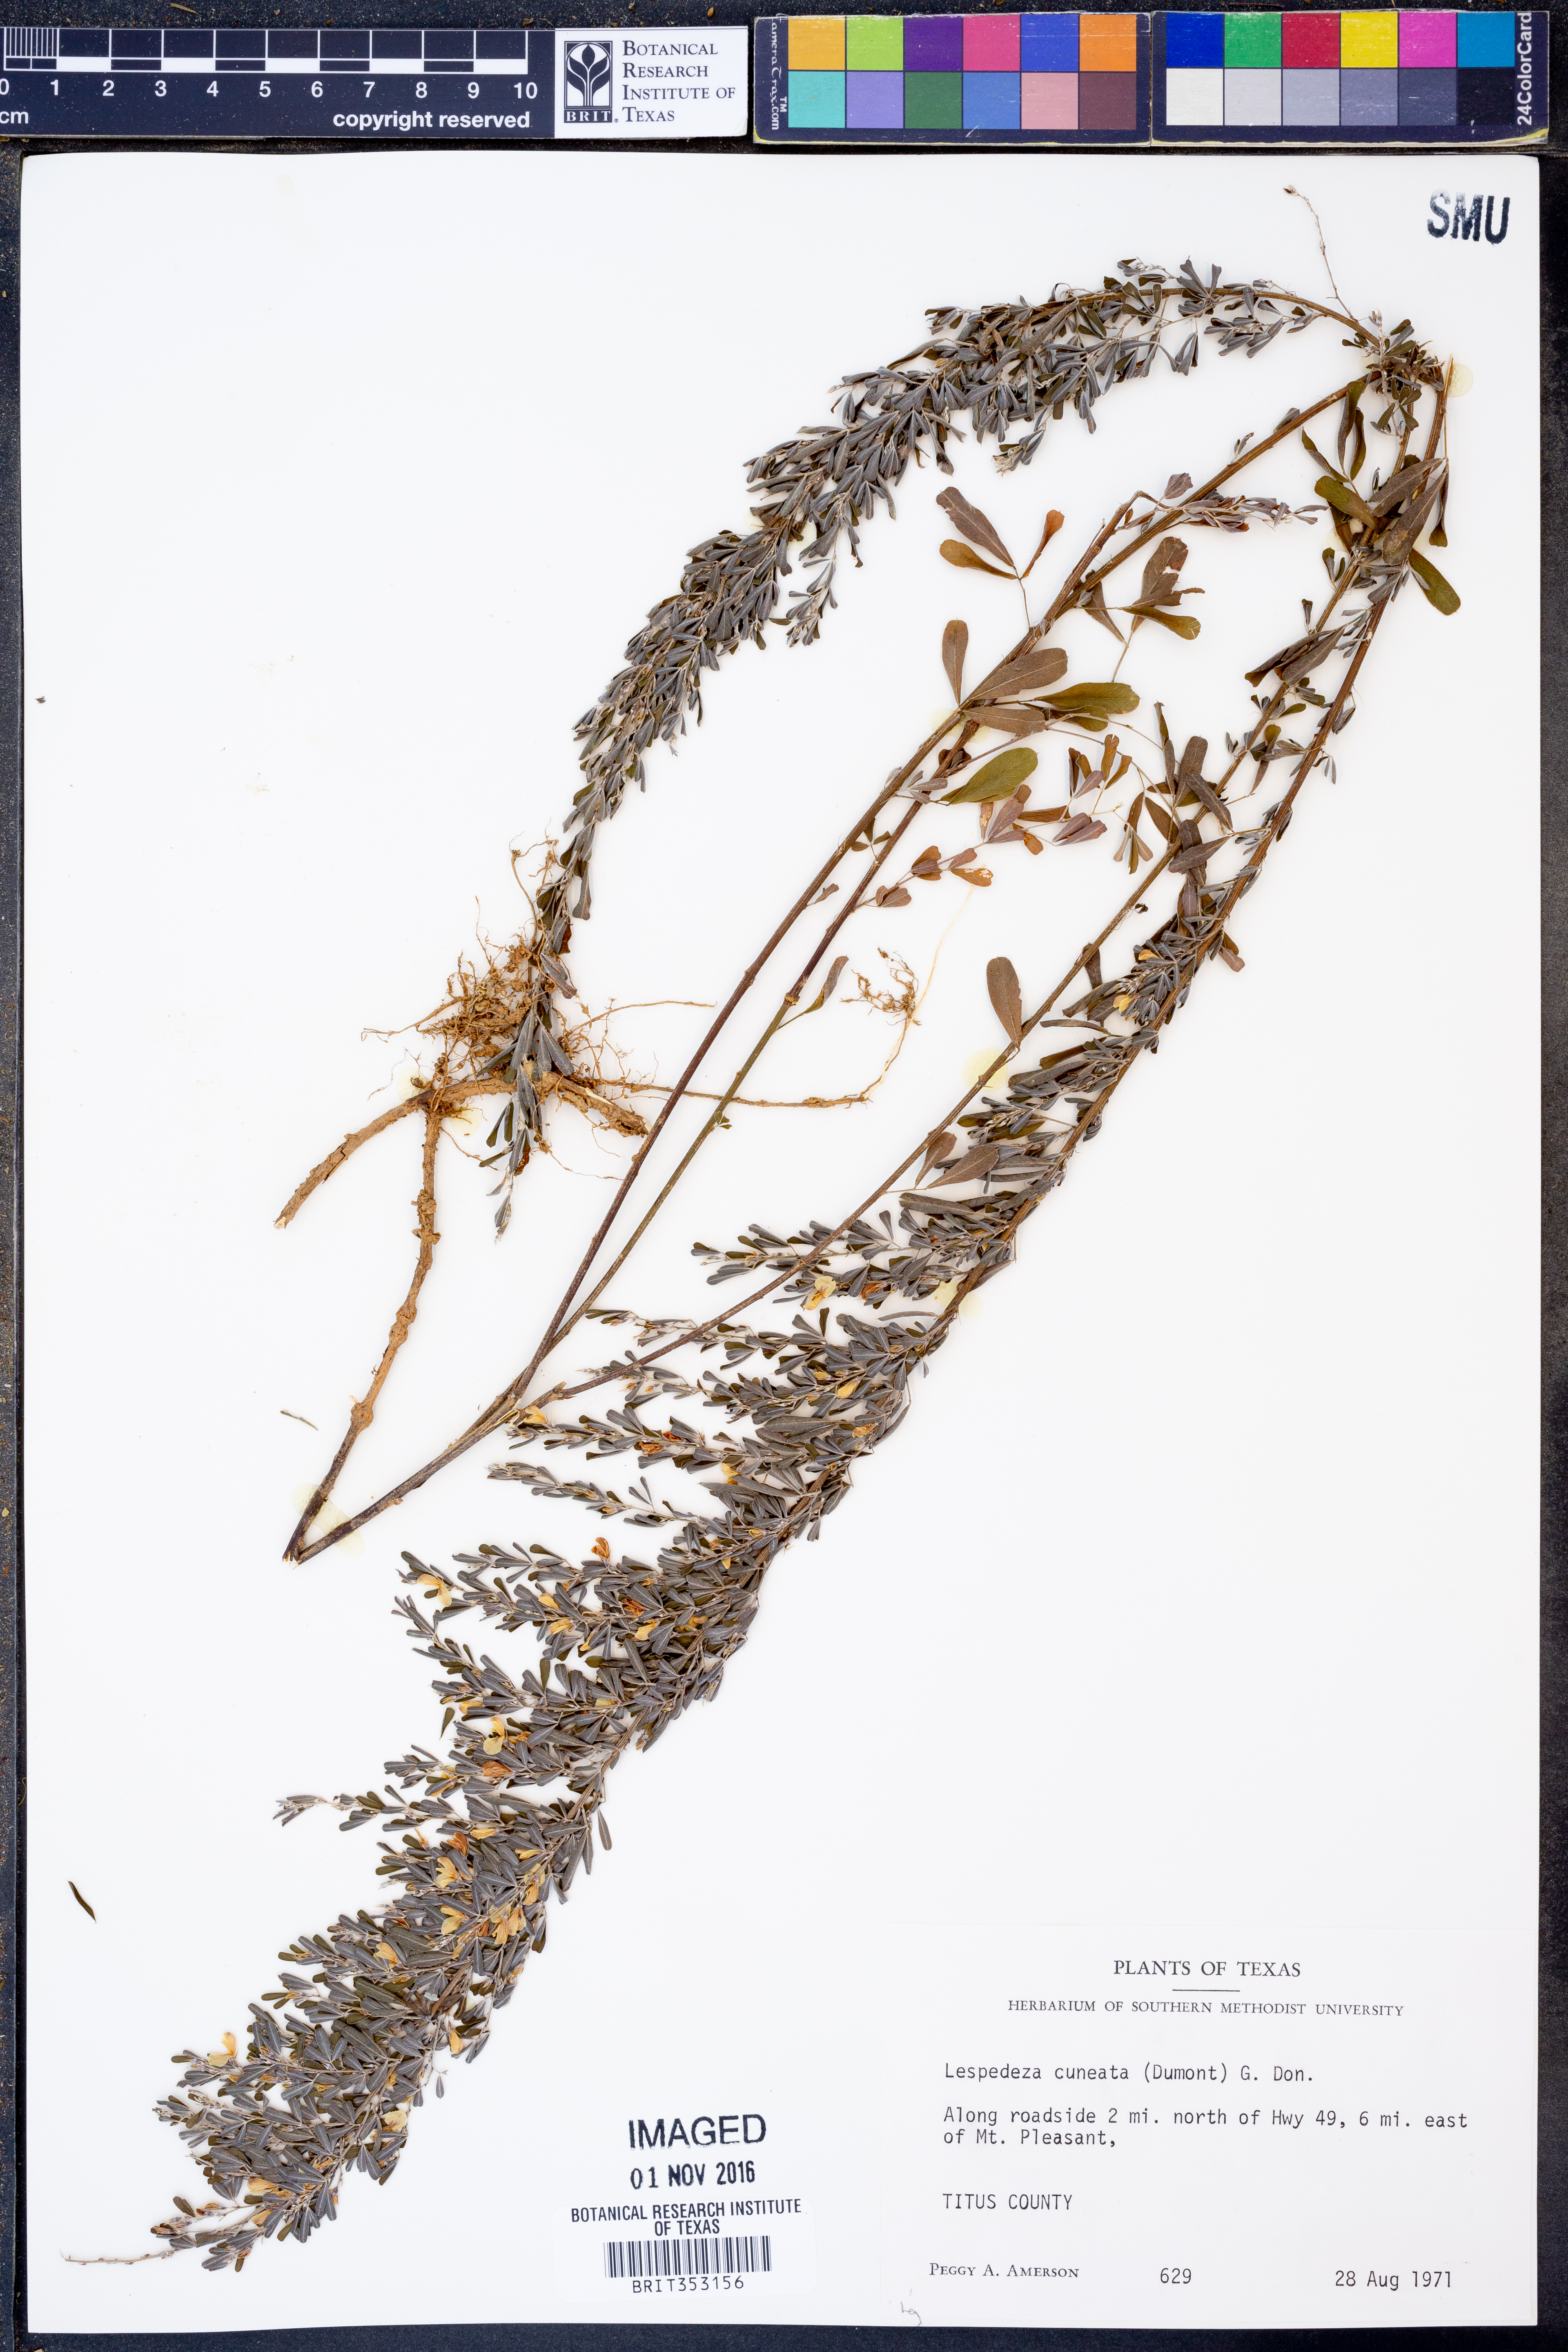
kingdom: Plantae
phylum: Tracheophyta
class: Magnoliopsida
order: Fabales
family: Fabaceae
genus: Lespedeza
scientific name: Lespedeza cuneata
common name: Chinese bush-clover
